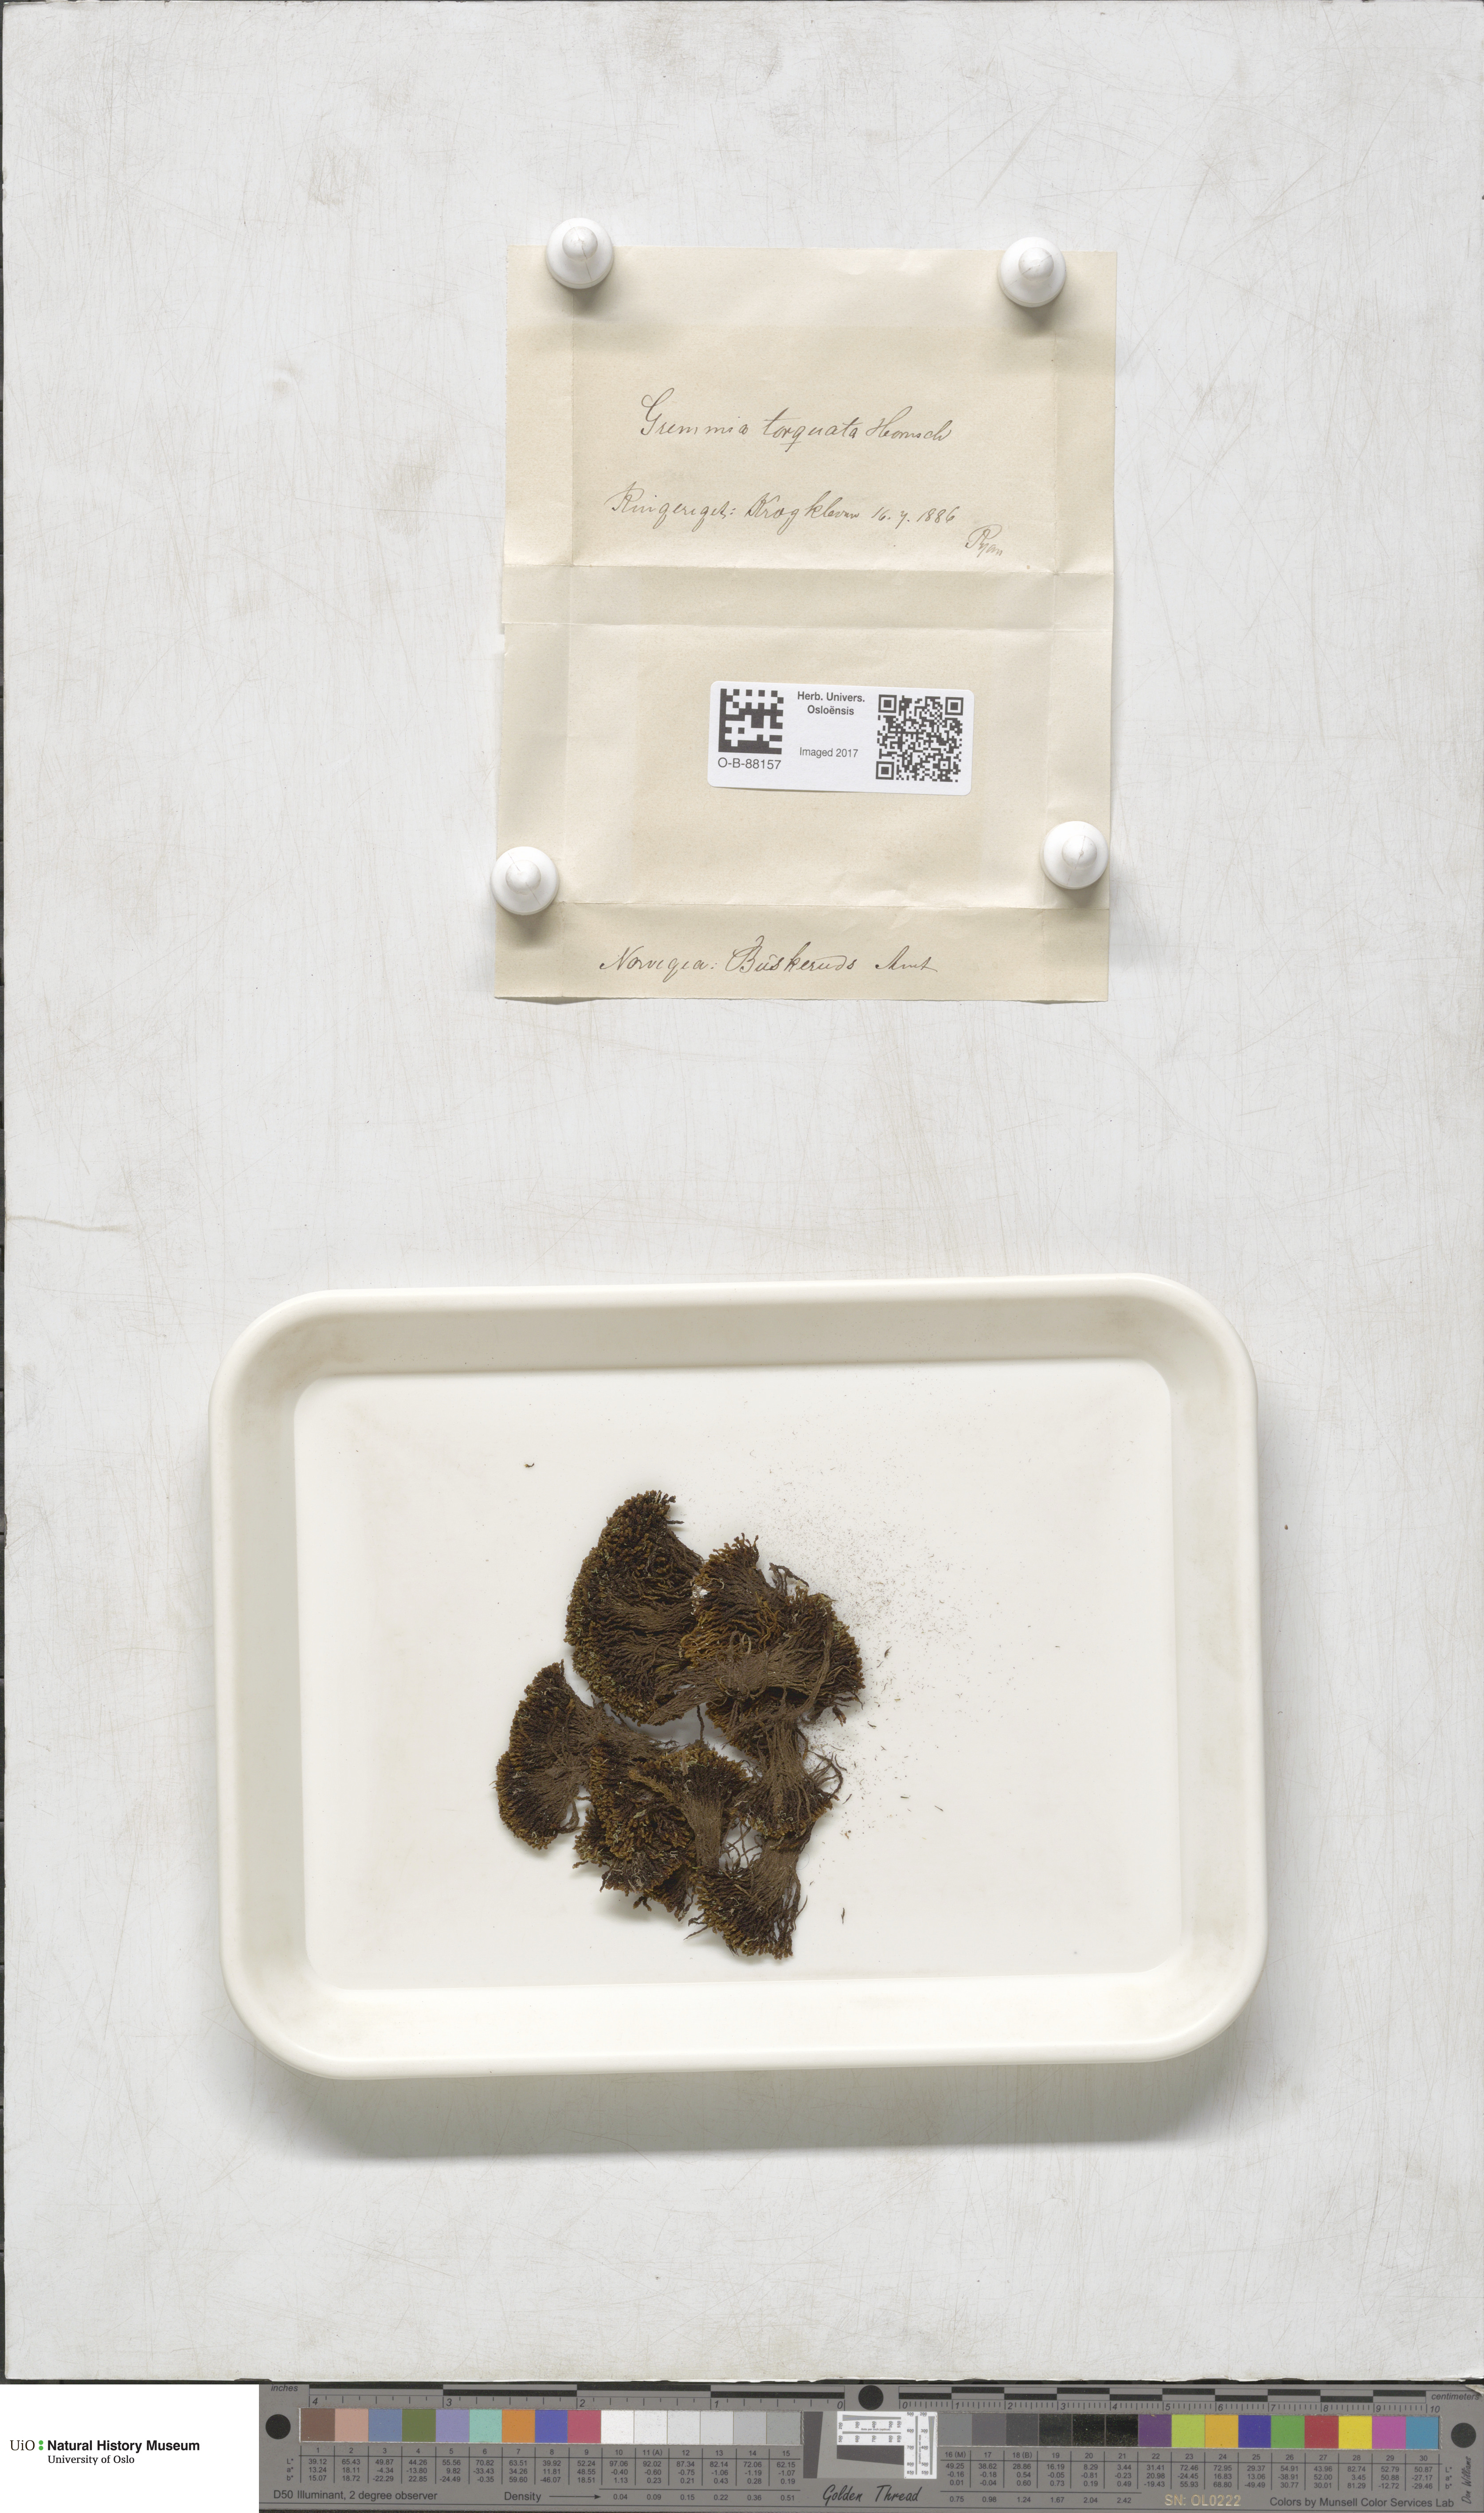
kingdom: Plantae
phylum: Bryophyta
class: Bryopsida
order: Grimmiales
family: Grimmiaceae
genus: Grimmia
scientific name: Grimmia torquata
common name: Twisted grimmia
